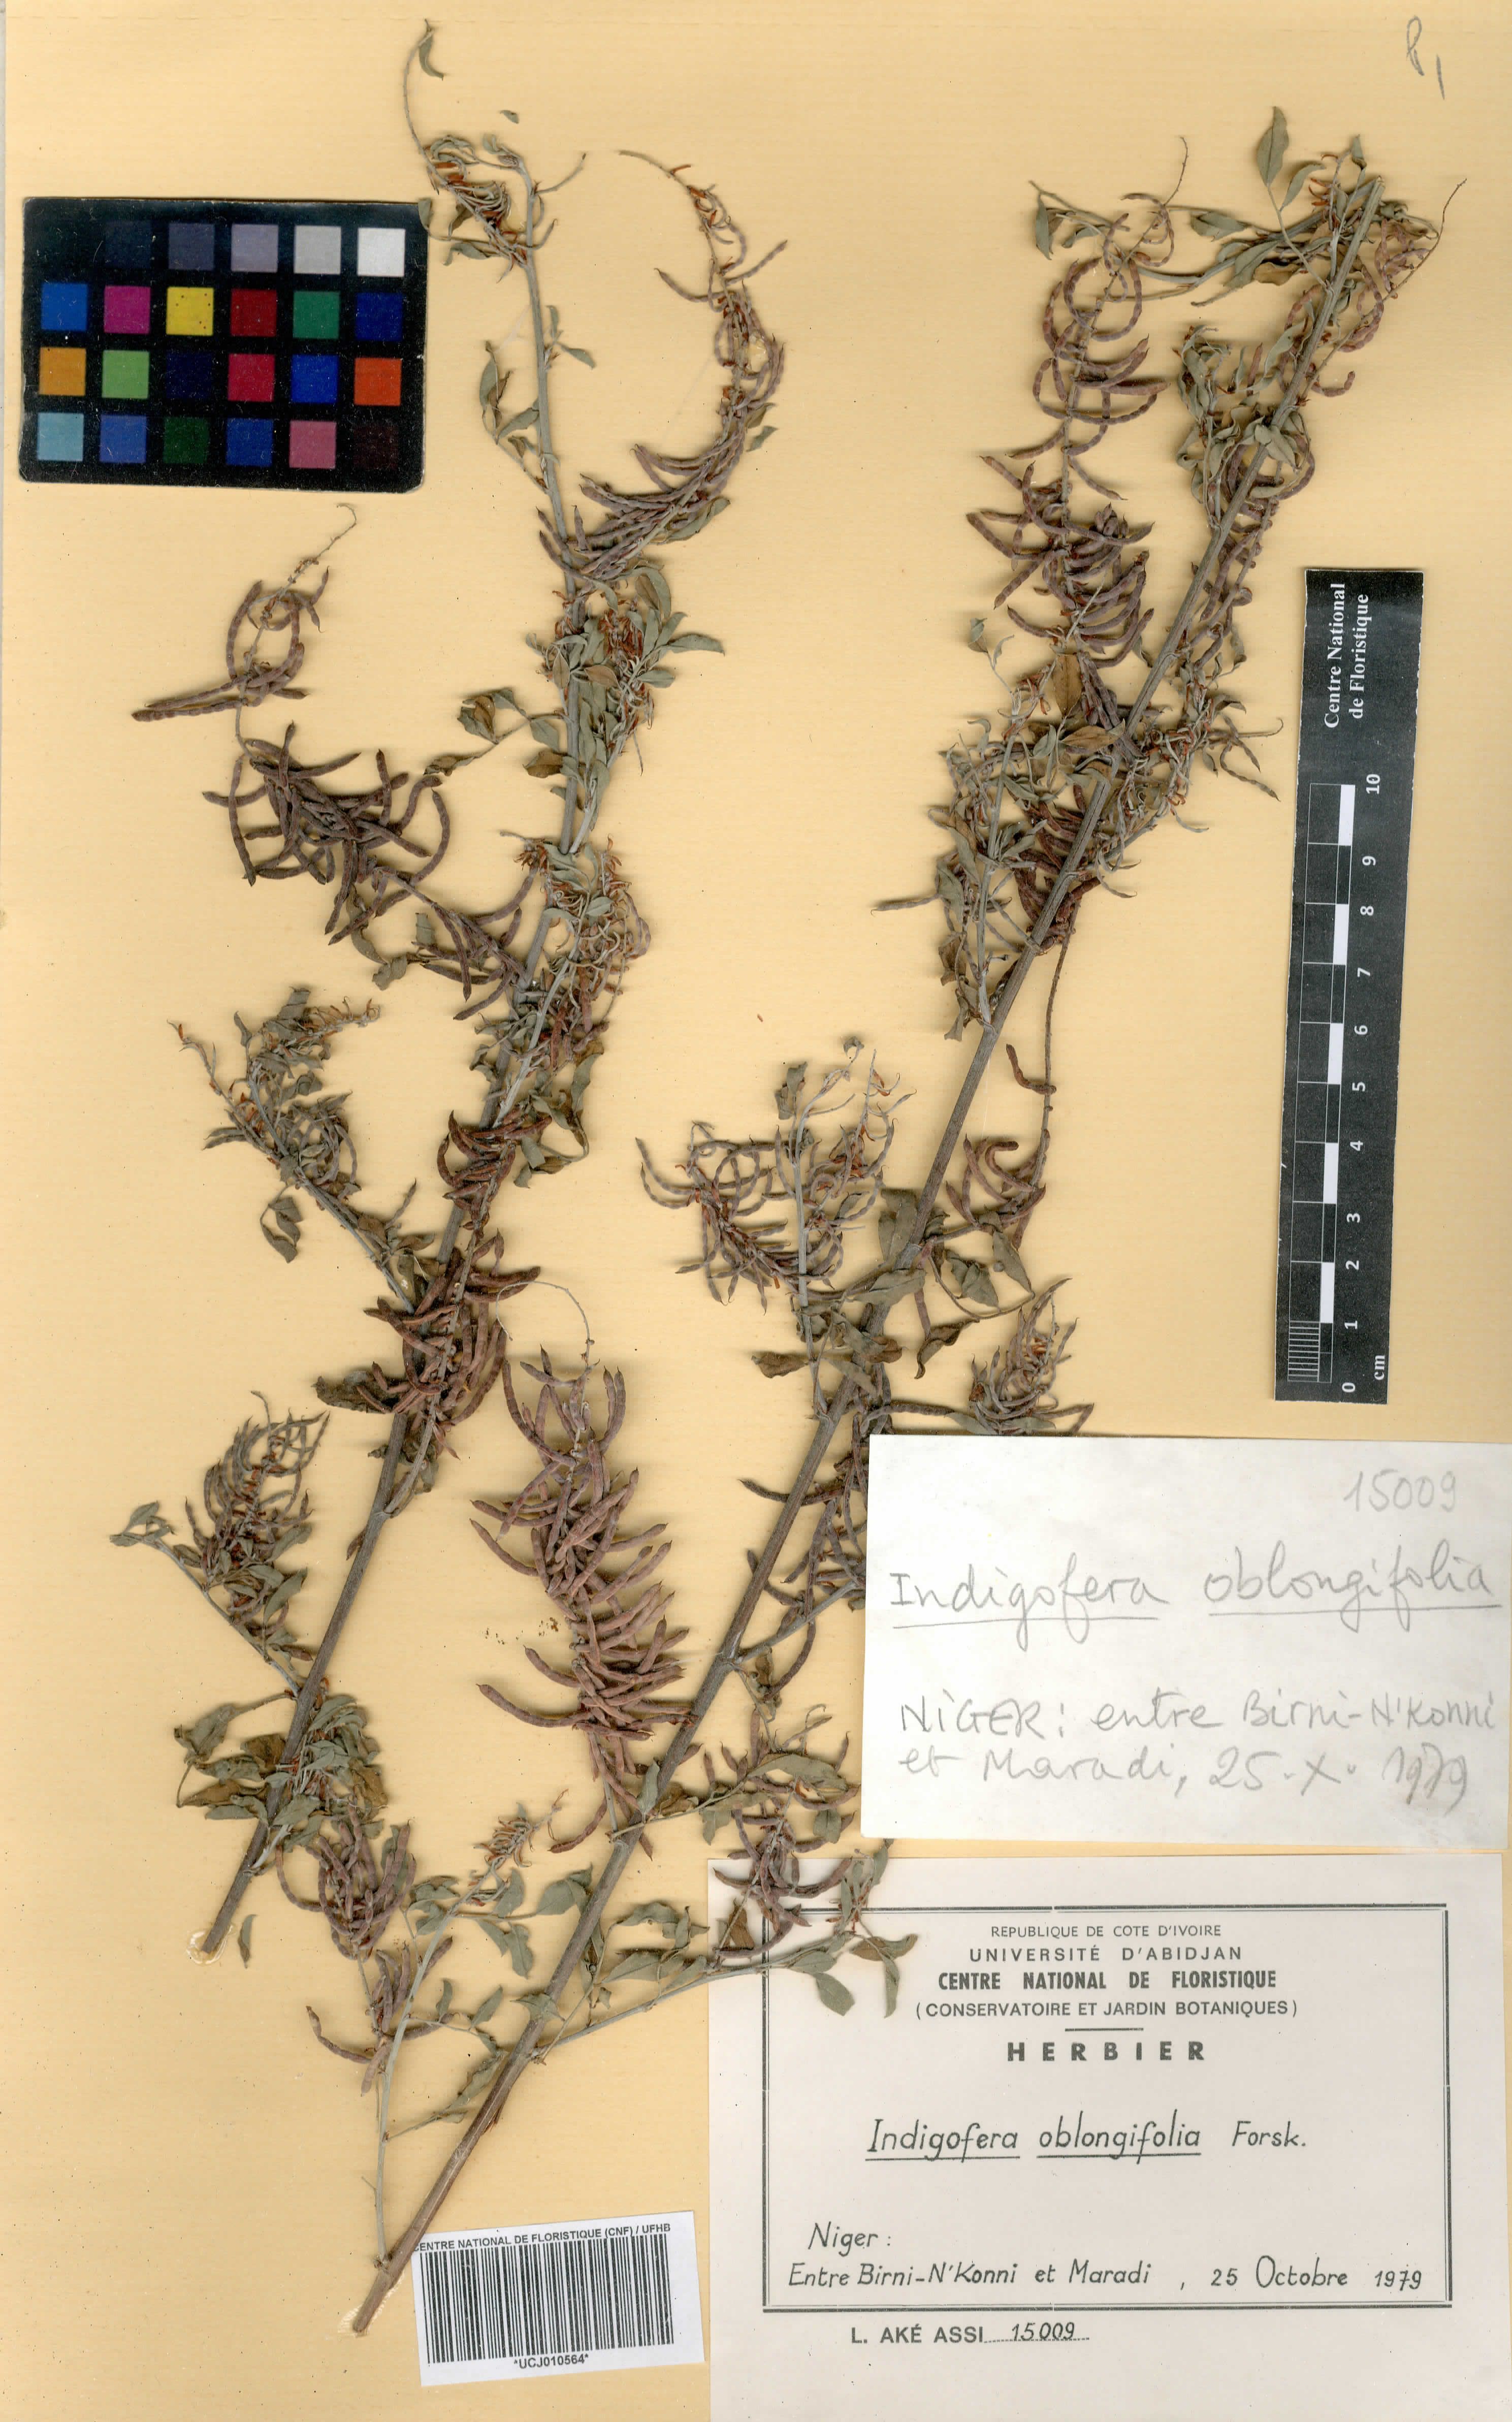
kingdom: Plantae
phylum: Tracheophyta
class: Magnoliopsida
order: Fabales
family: Fabaceae
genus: Indigofera
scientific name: Indigofera oblongifolia
